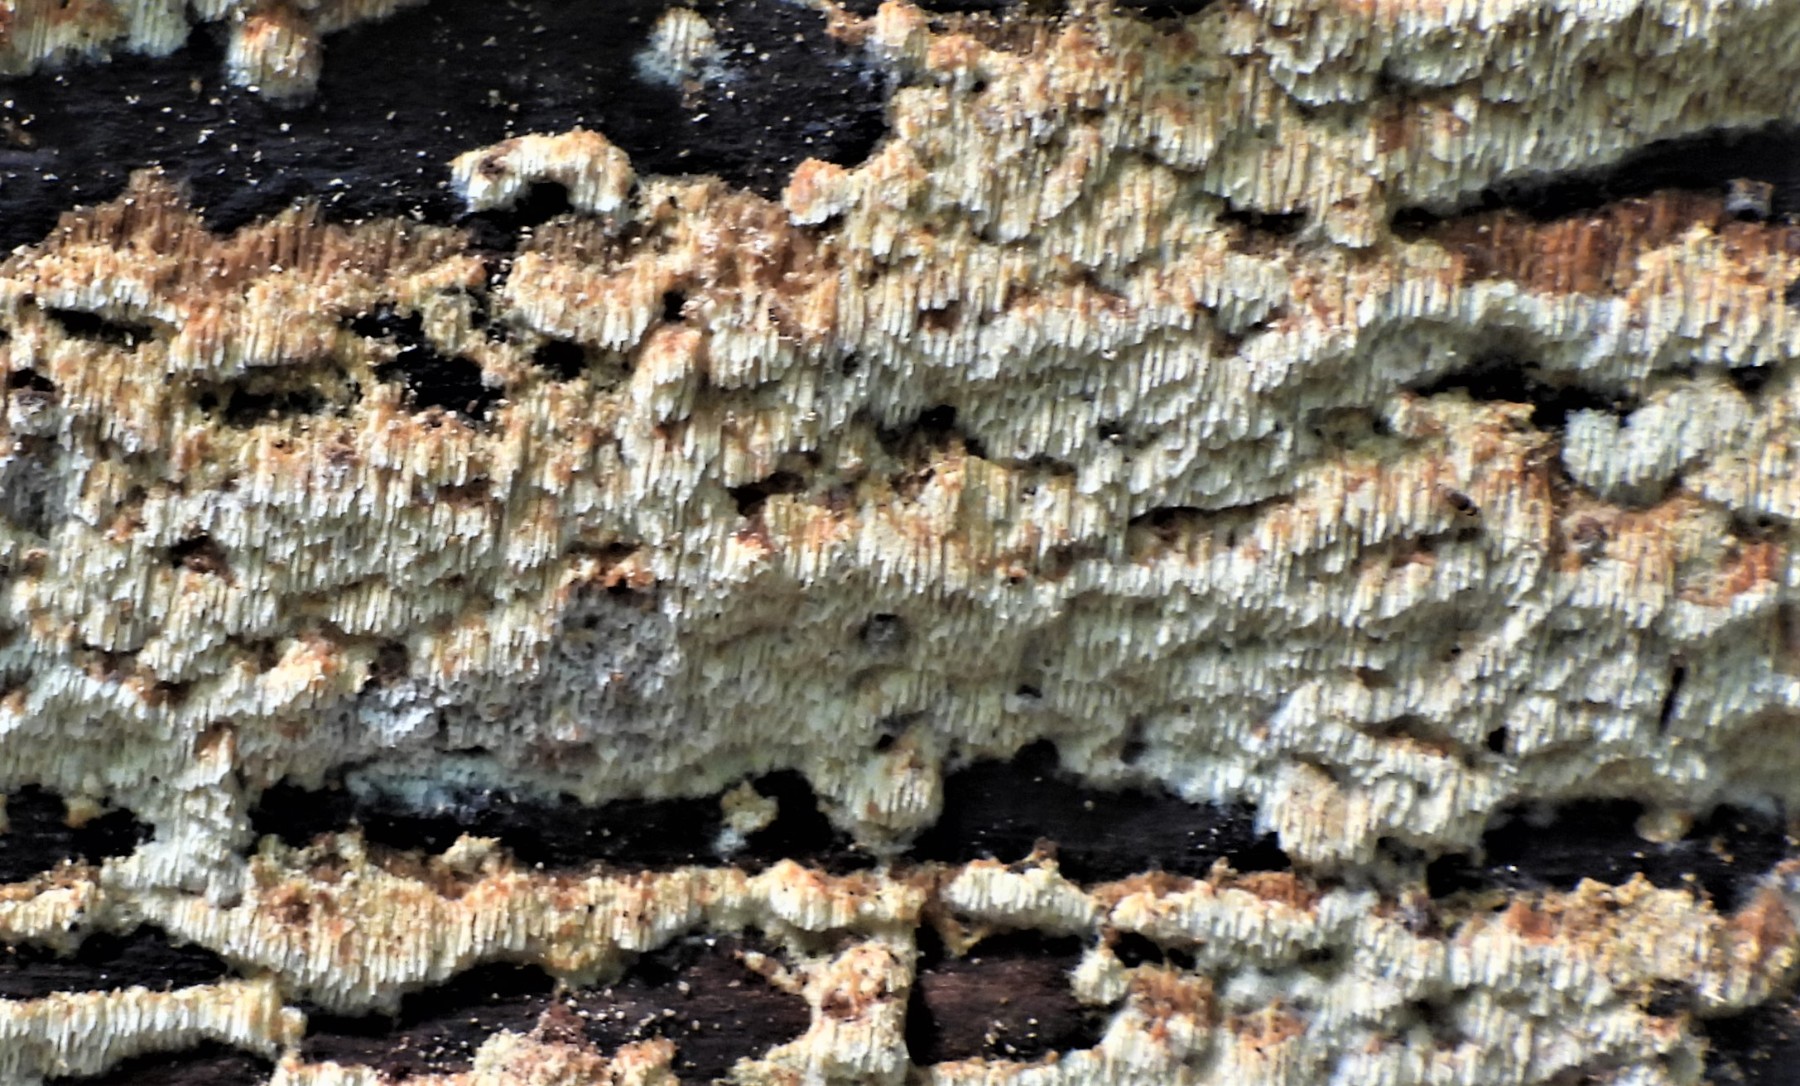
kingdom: Fungi
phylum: Basidiomycota
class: Agaricomycetes
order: Hymenochaetales
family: Schizoporaceae
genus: Schizopora
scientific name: Schizopora paradoxa
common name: hvid tandsvamp
